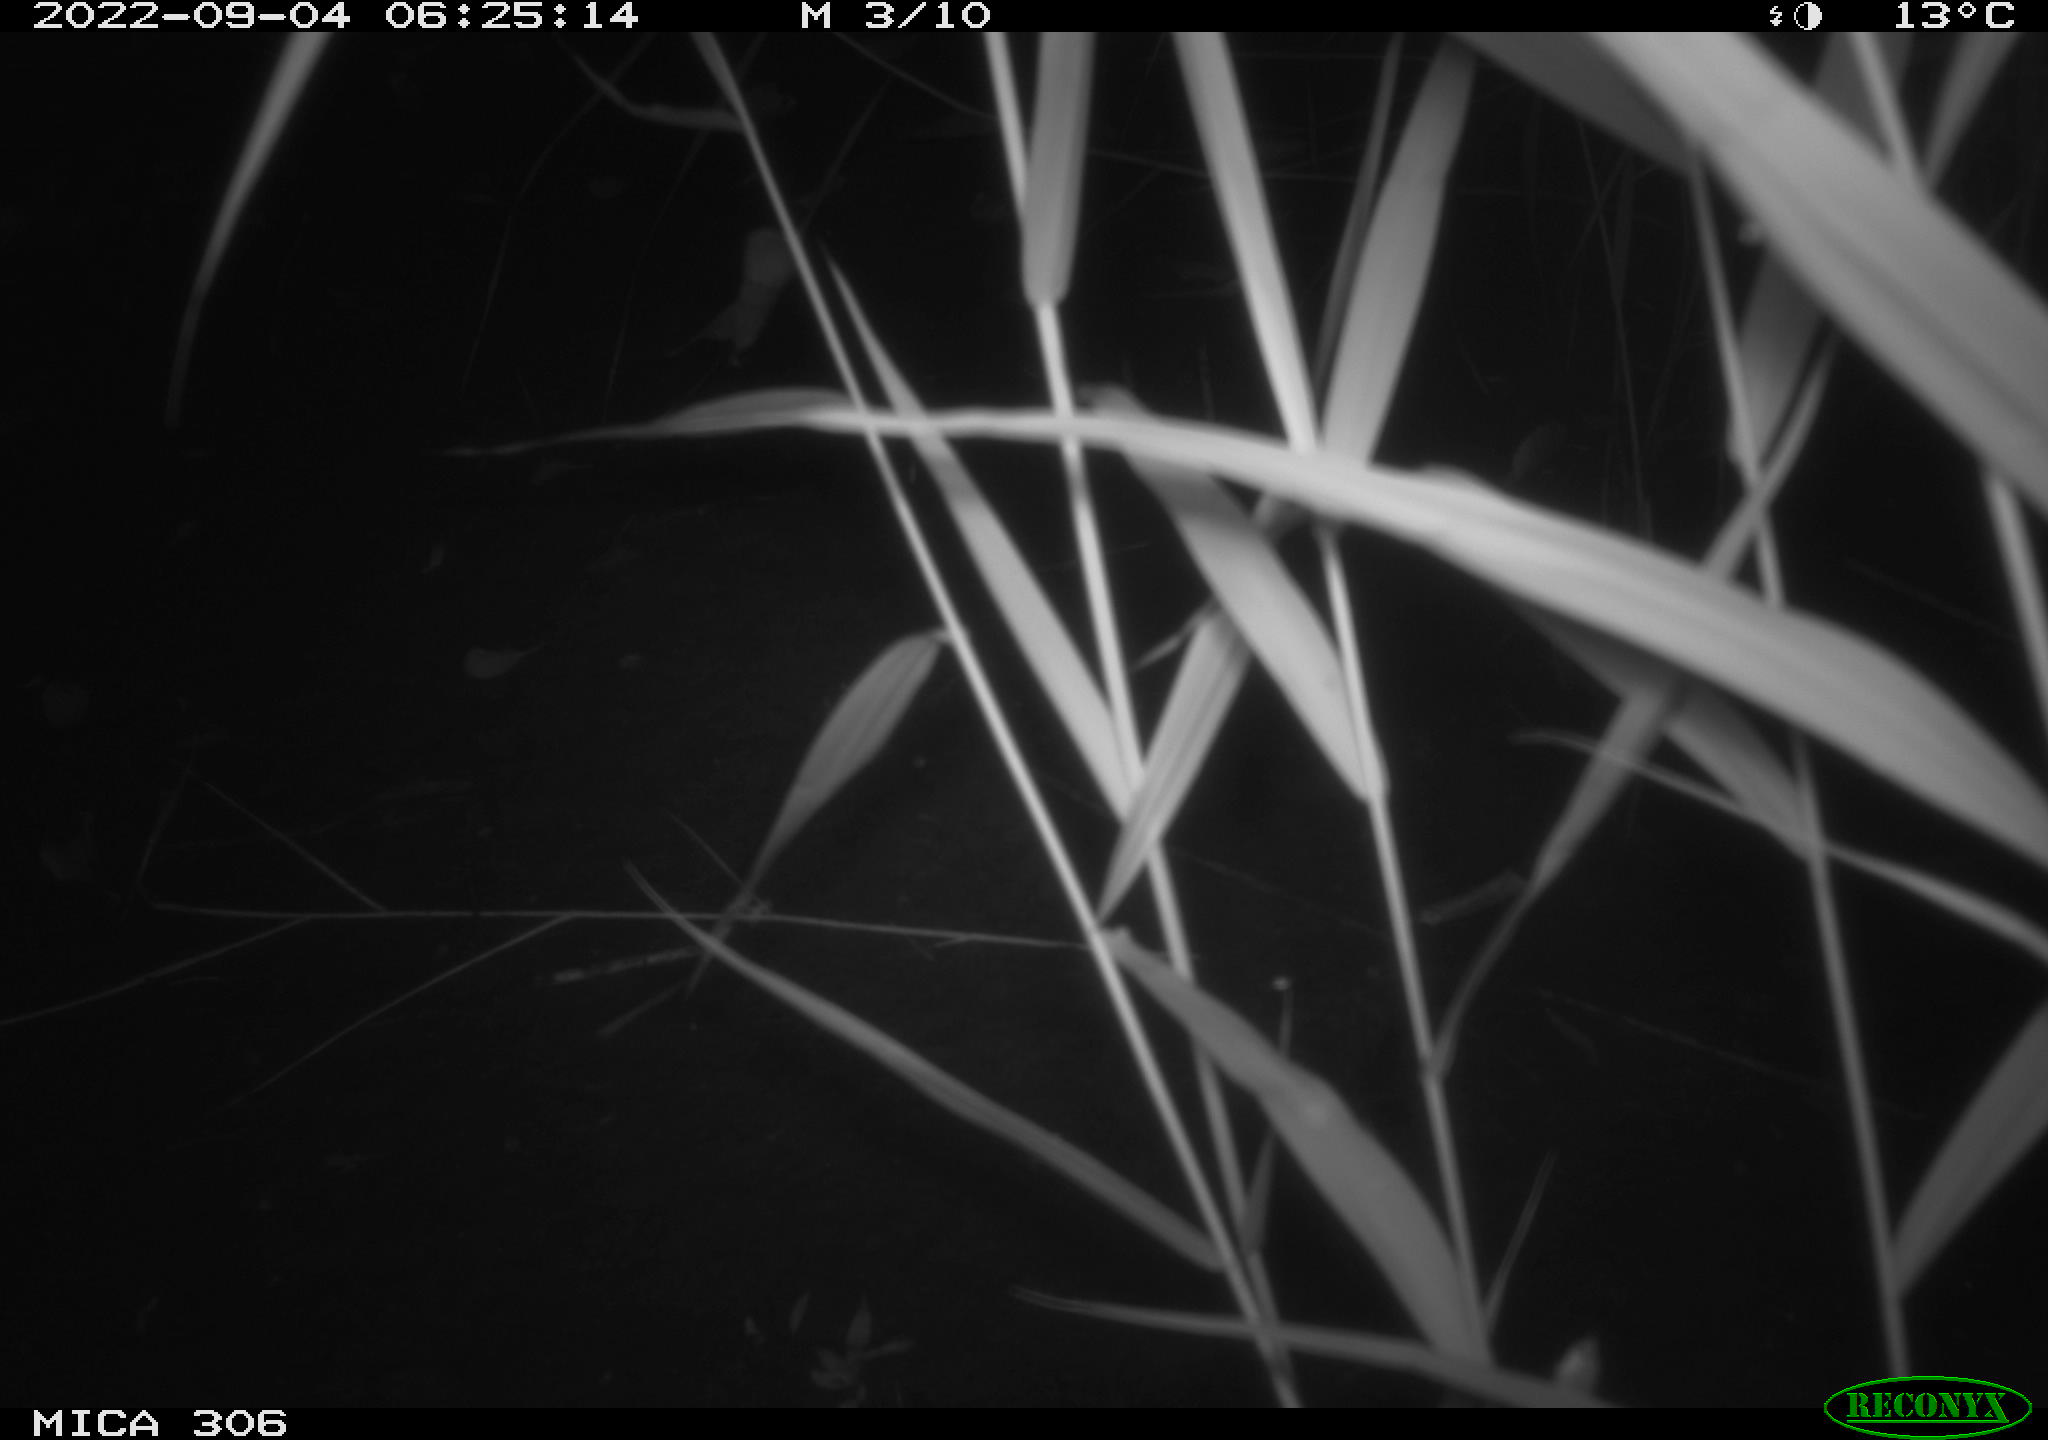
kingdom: Animalia
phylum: Chordata
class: Mammalia
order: Rodentia
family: Muridae
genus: Rattus
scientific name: Rattus norvegicus
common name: Brown rat
